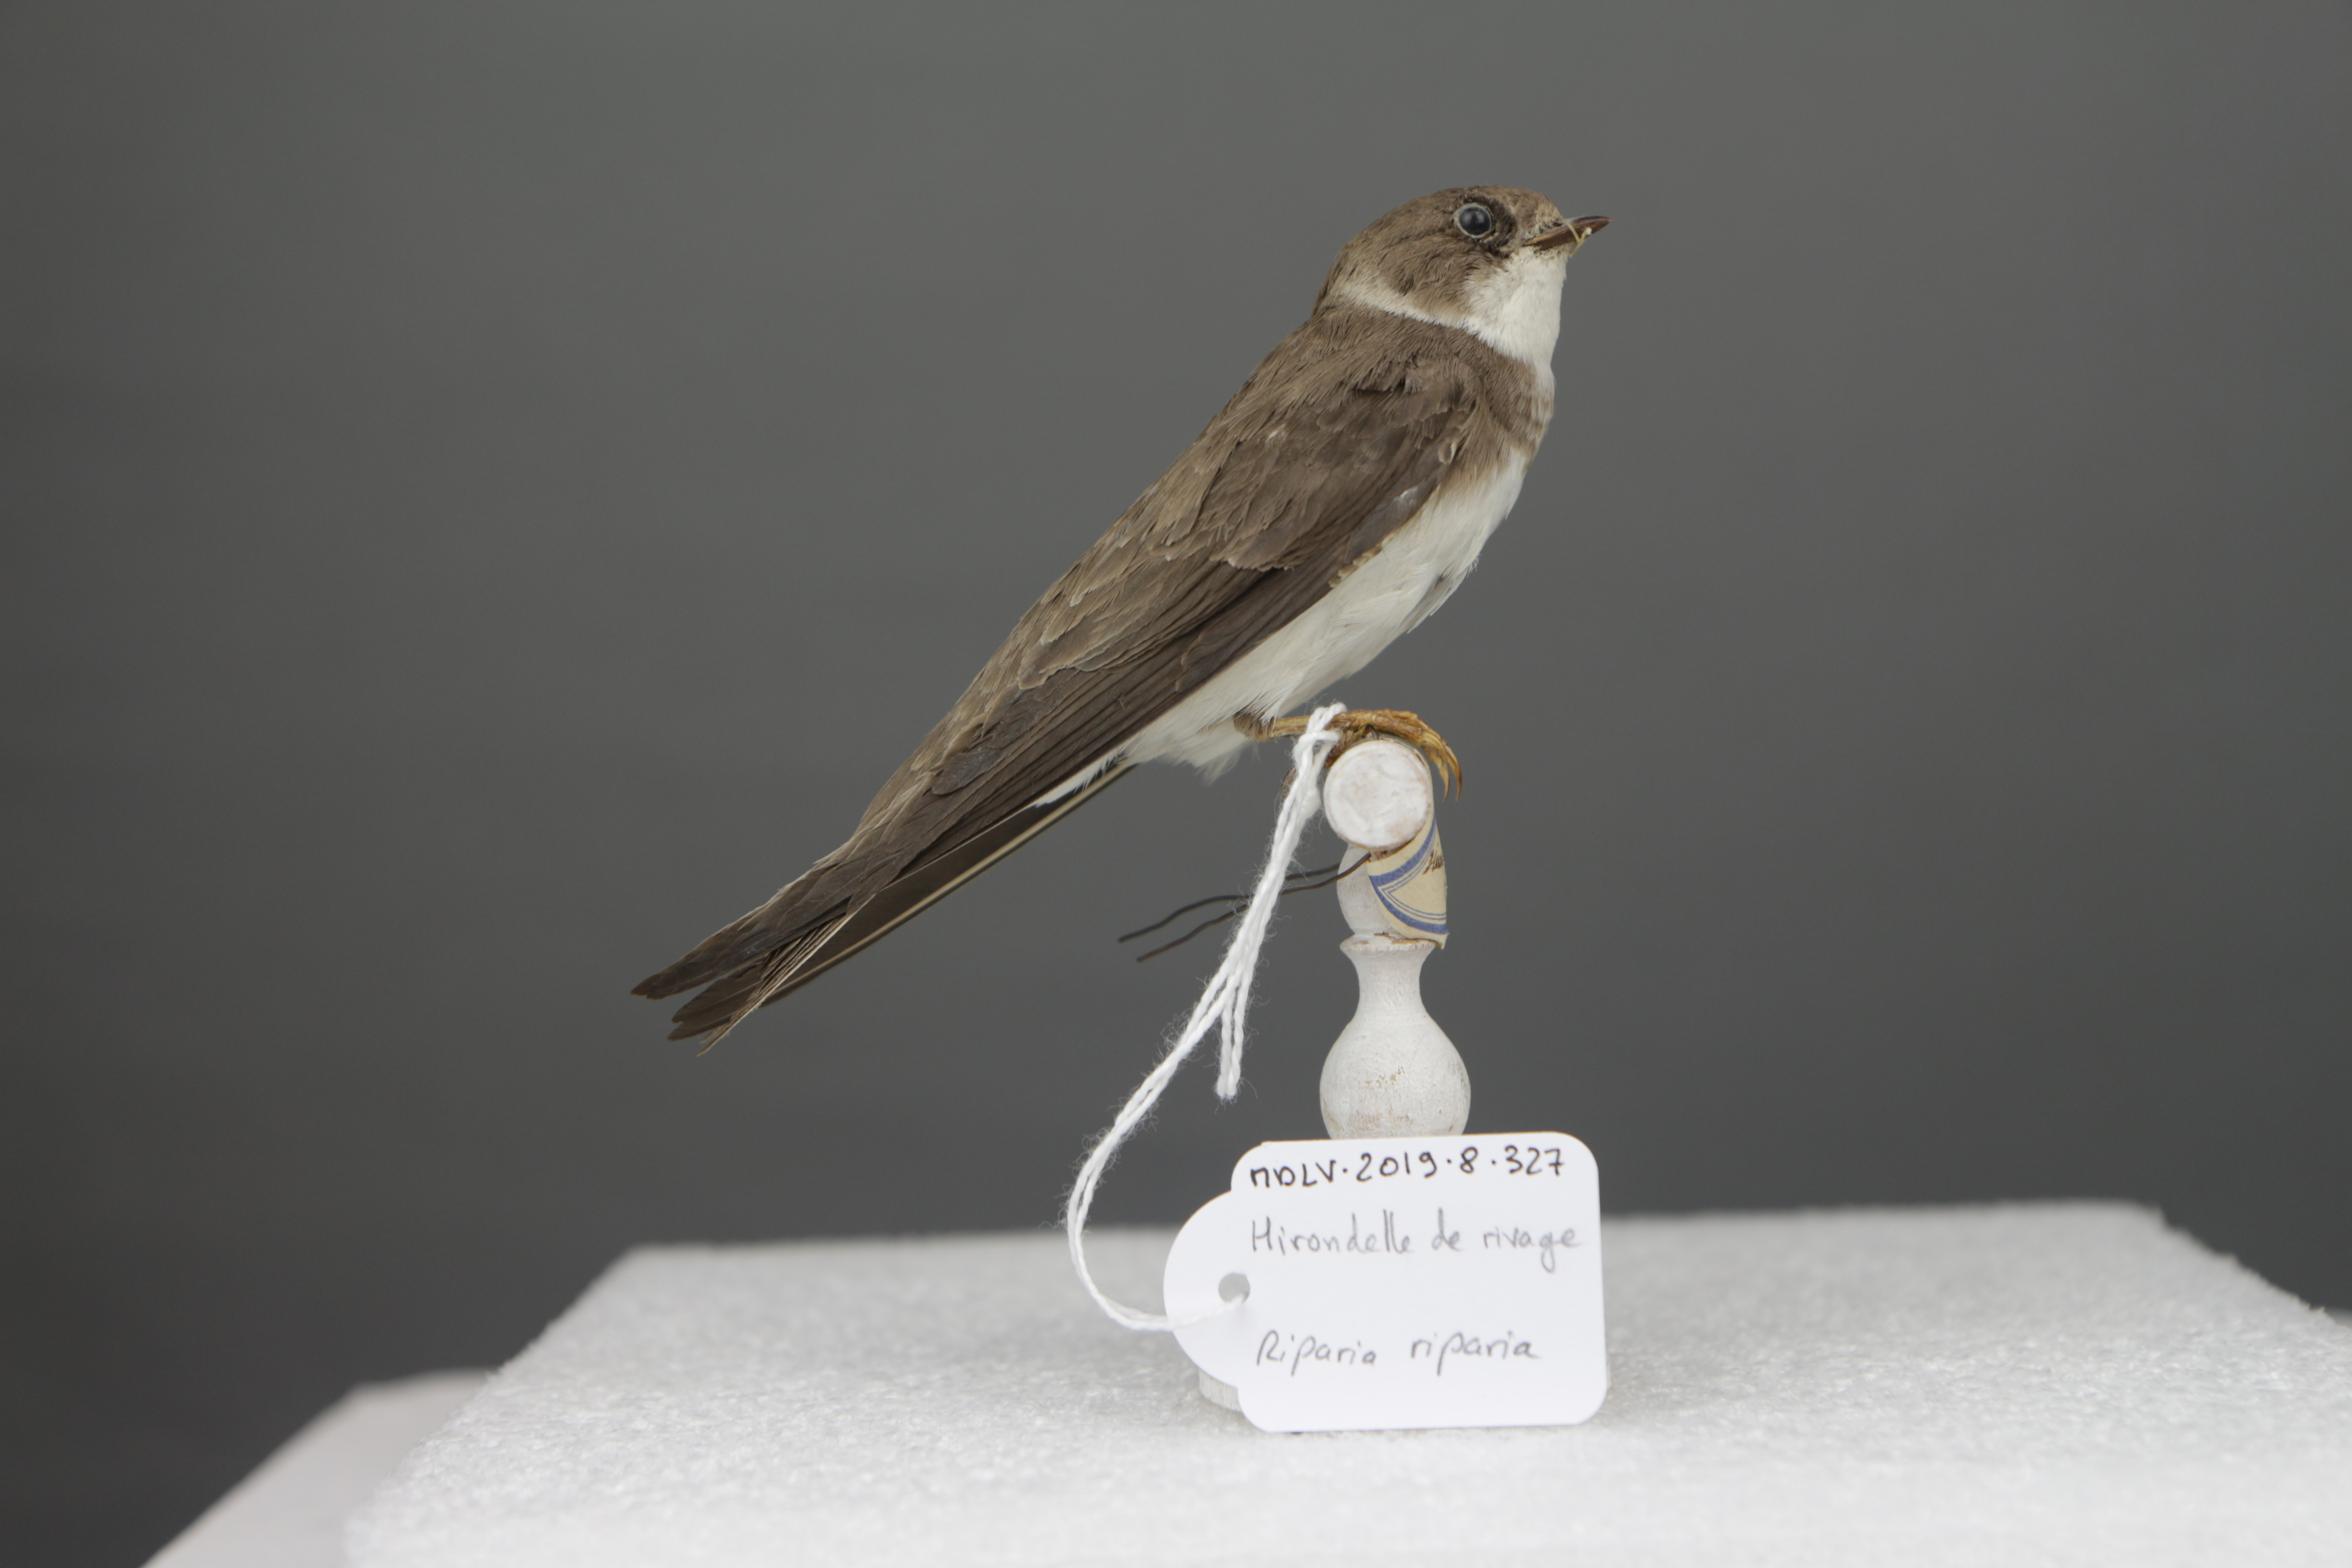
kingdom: Animalia
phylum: Chordata
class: Aves
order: Passeriformes
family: Hirundinidae
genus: Riparia
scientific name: Riparia riparia
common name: Sand martin
